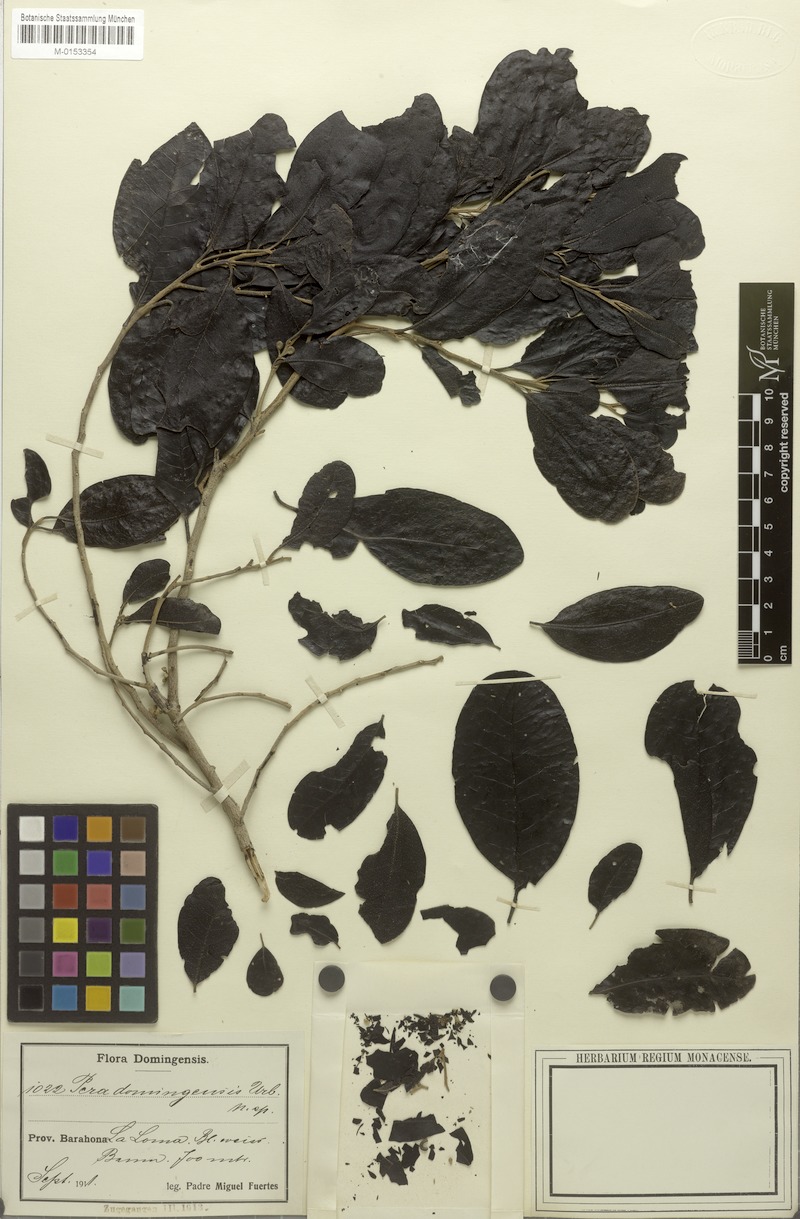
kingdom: Plantae
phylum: Tracheophyta
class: Magnoliopsida
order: Malpighiales
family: Peraceae
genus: Pera
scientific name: Pera bumeliifolia
